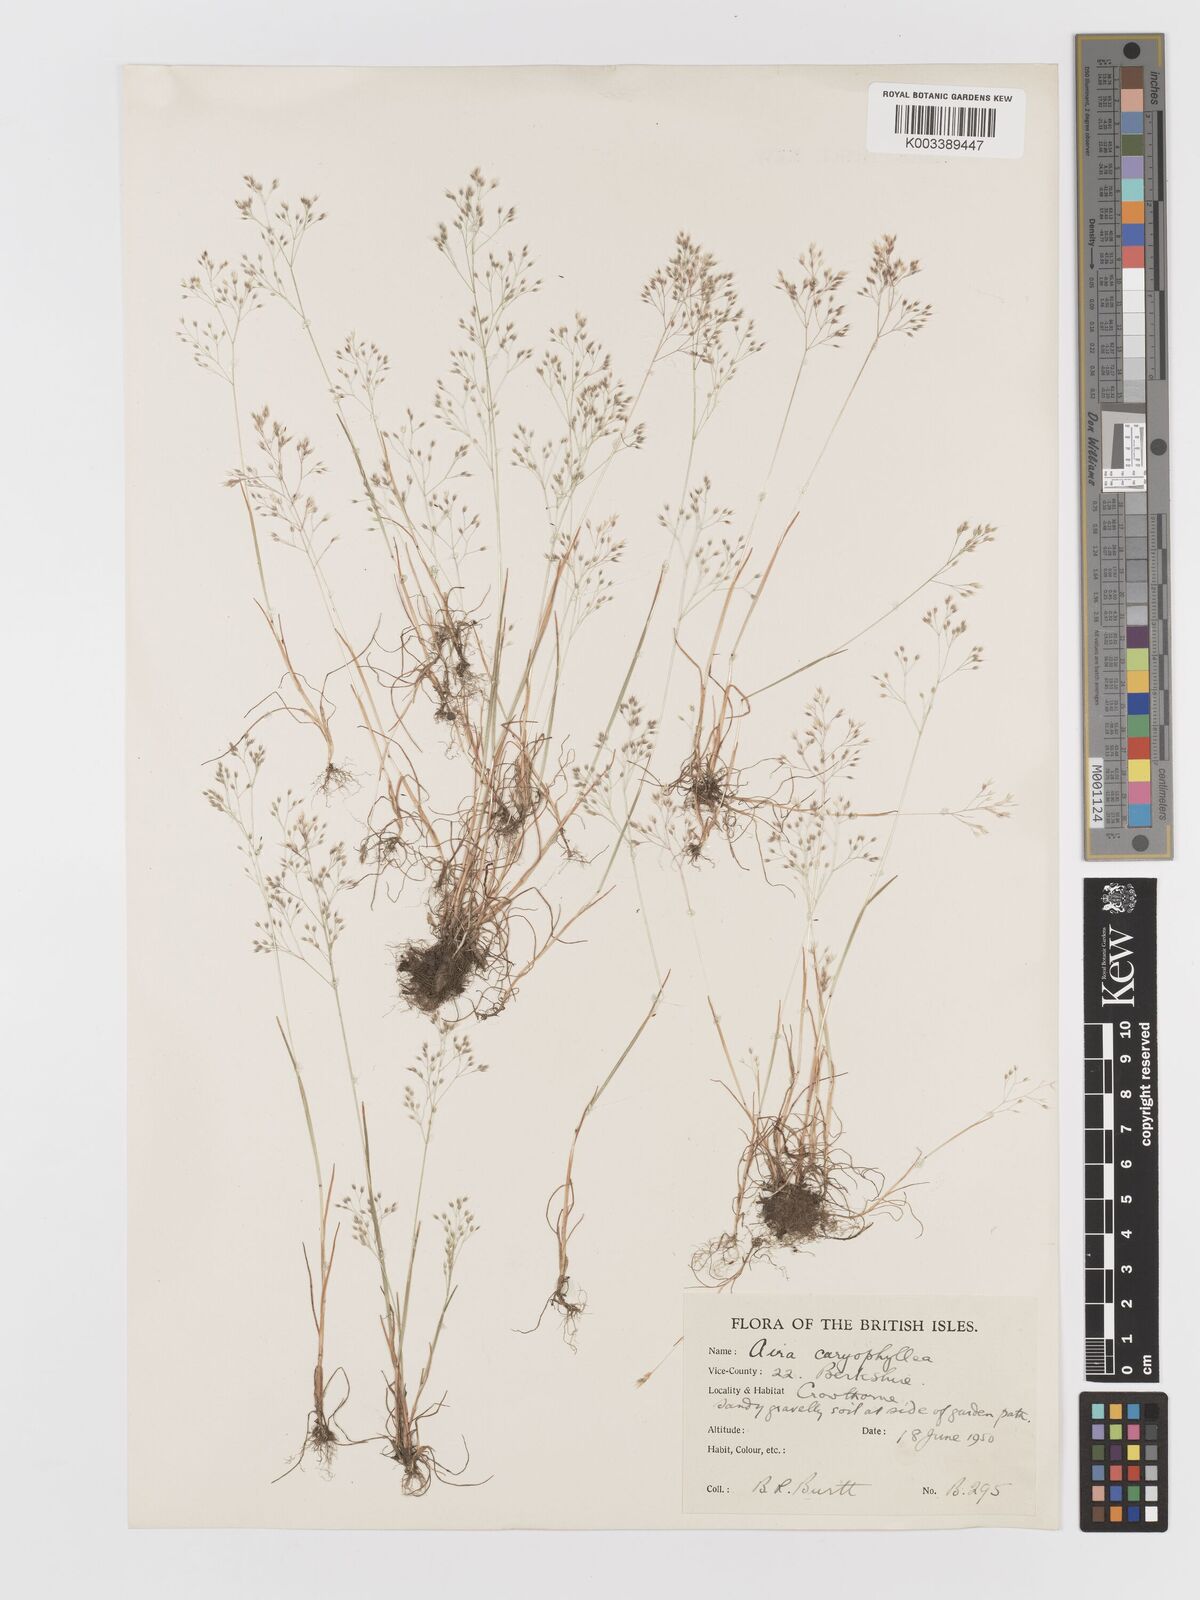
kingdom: Plantae
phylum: Tracheophyta
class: Liliopsida
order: Poales
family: Poaceae
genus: Aira
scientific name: Aira caryophyllea
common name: Silver hairgrass
